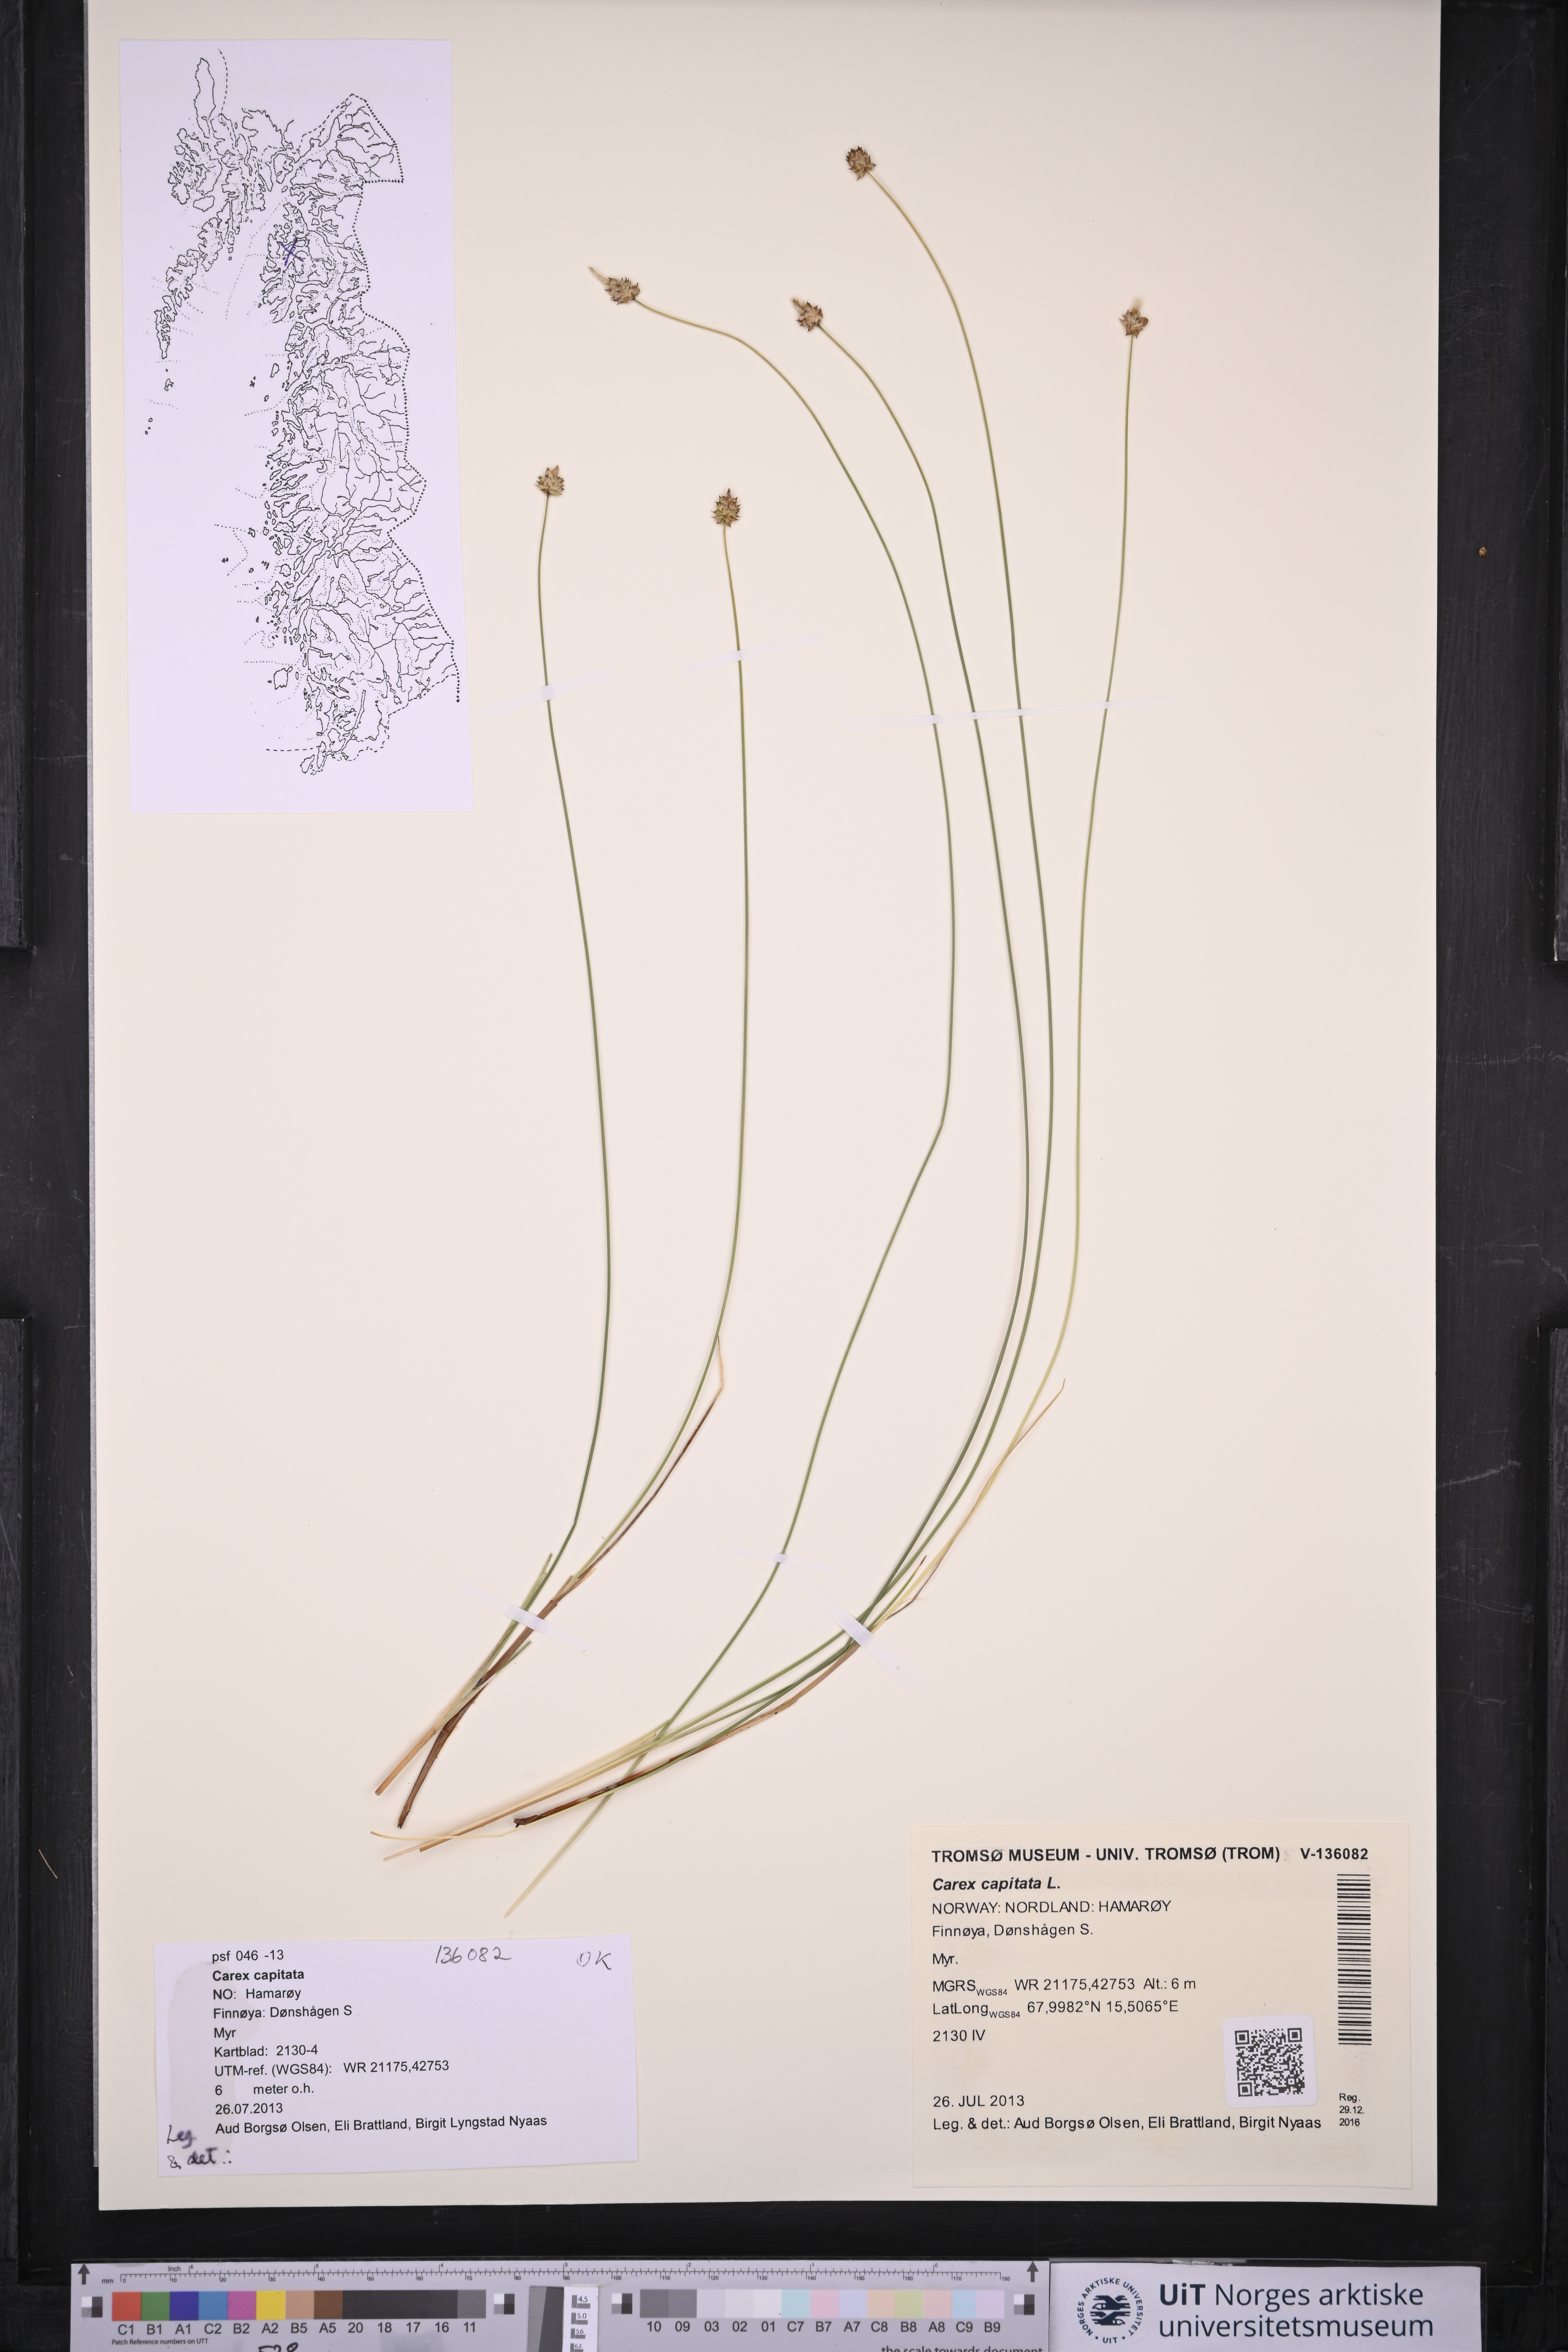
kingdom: Plantae
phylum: Tracheophyta
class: Liliopsida
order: Poales
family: Cyperaceae
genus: Carex
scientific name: Carex capitata
